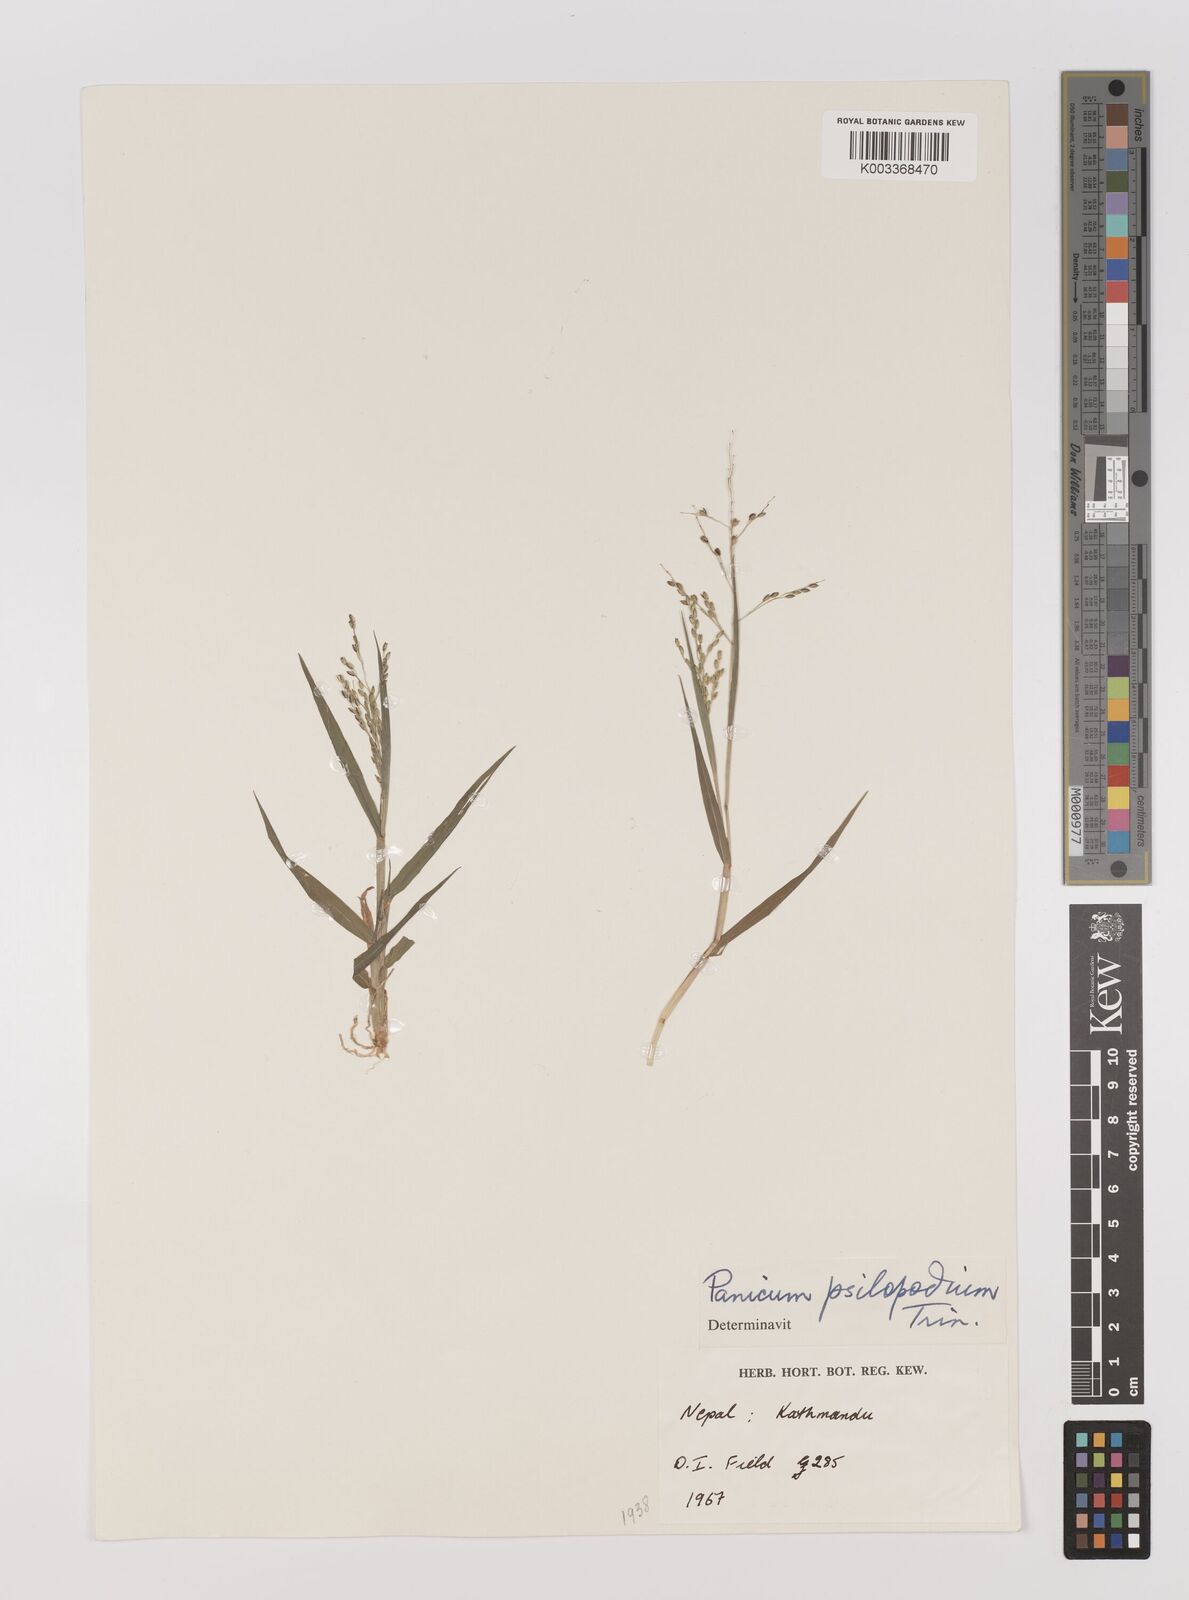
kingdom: Plantae
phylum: Tracheophyta
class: Liliopsida
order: Poales
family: Poaceae
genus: Panicum
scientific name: Panicum sumatrense
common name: Little millet
